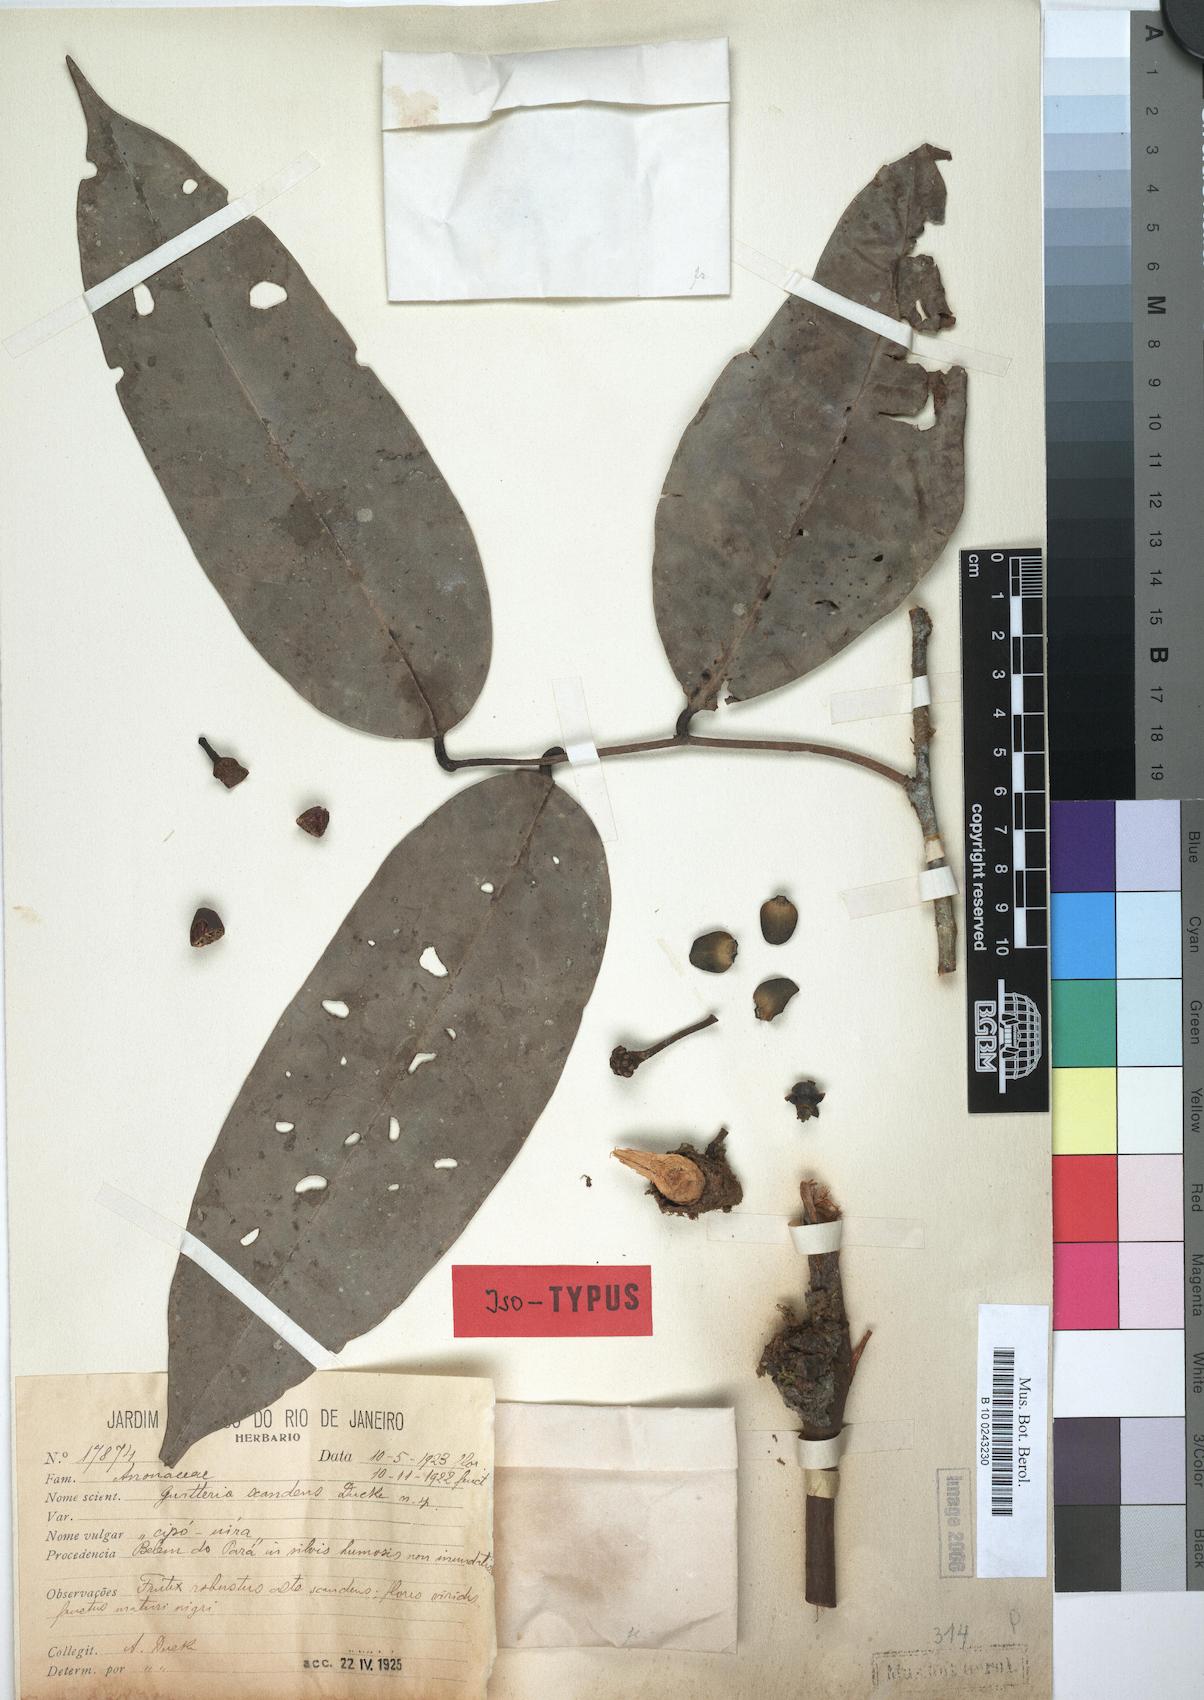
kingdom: Plantae
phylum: Tracheophyta
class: Magnoliopsida
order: Magnoliales
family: Annonaceae
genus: Guatteria
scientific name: Guatteria scandens
